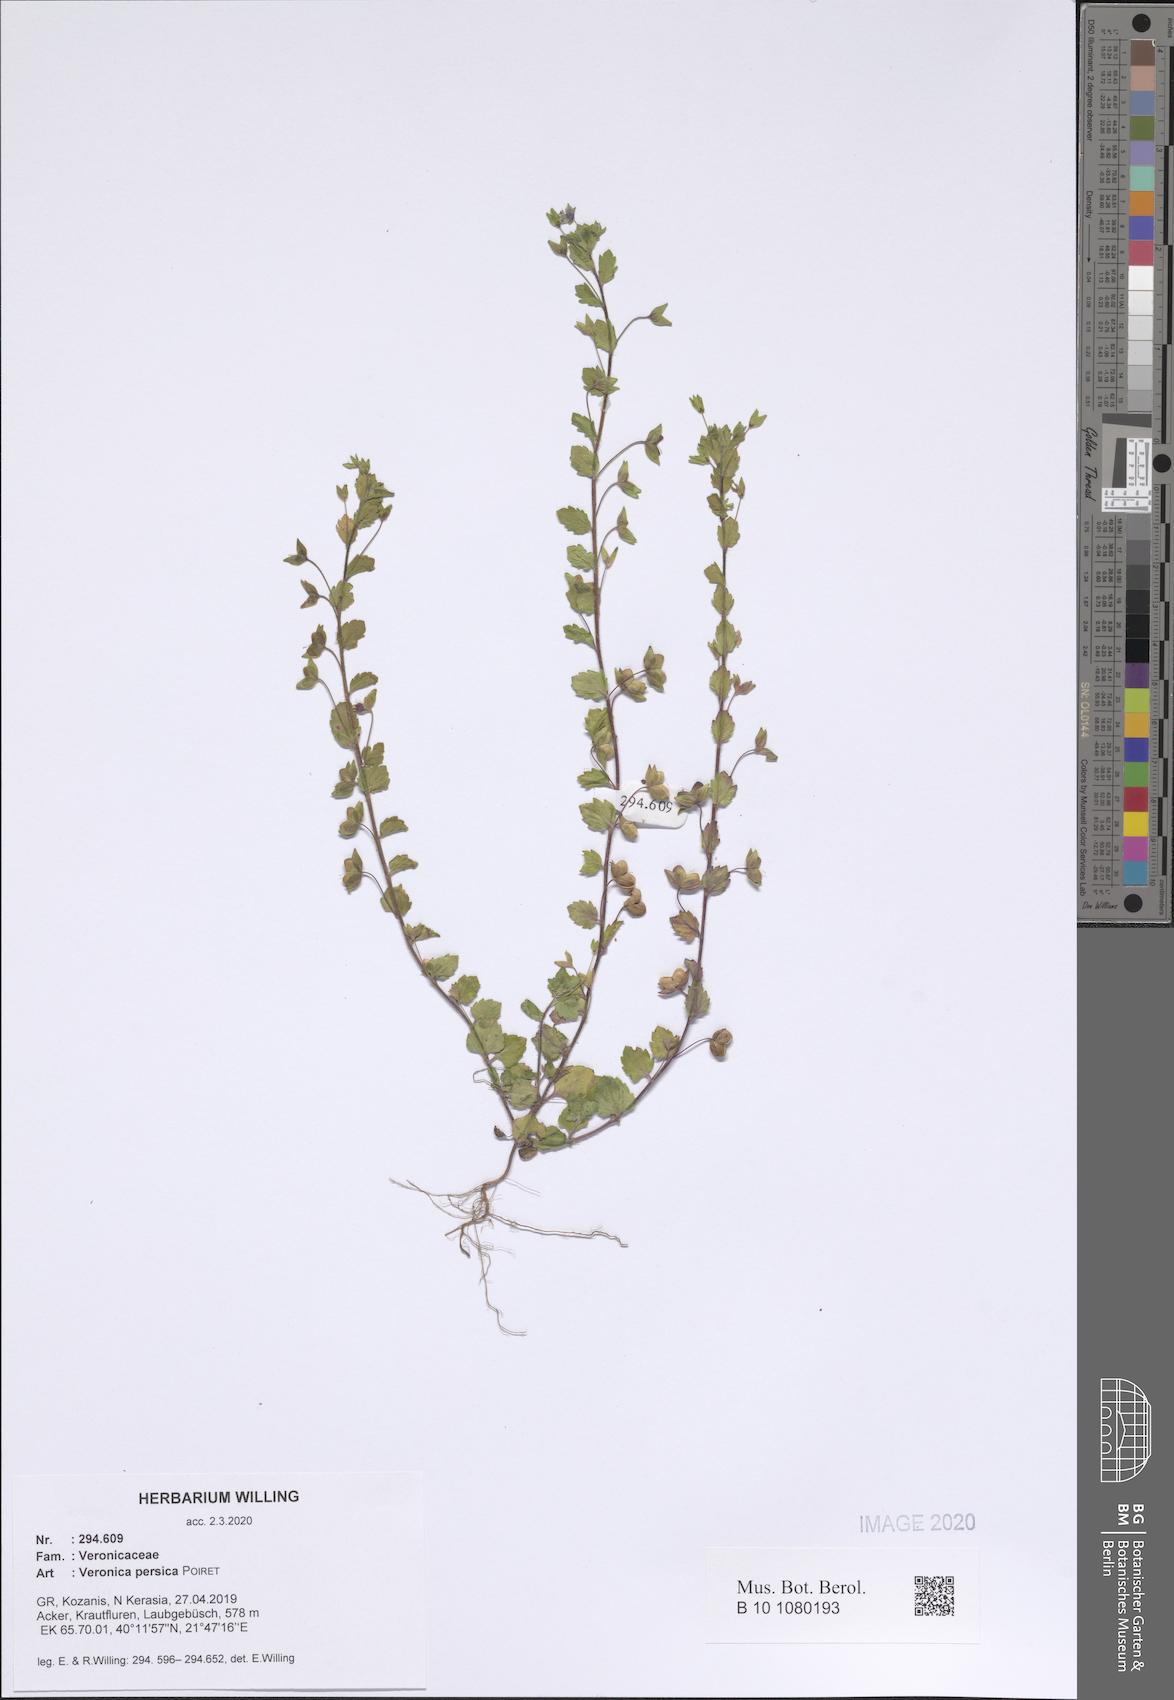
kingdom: Plantae
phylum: Tracheophyta
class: Magnoliopsida
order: Lamiales
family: Plantaginaceae
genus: Veronica
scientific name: Veronica persica
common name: Common field-speedwell
